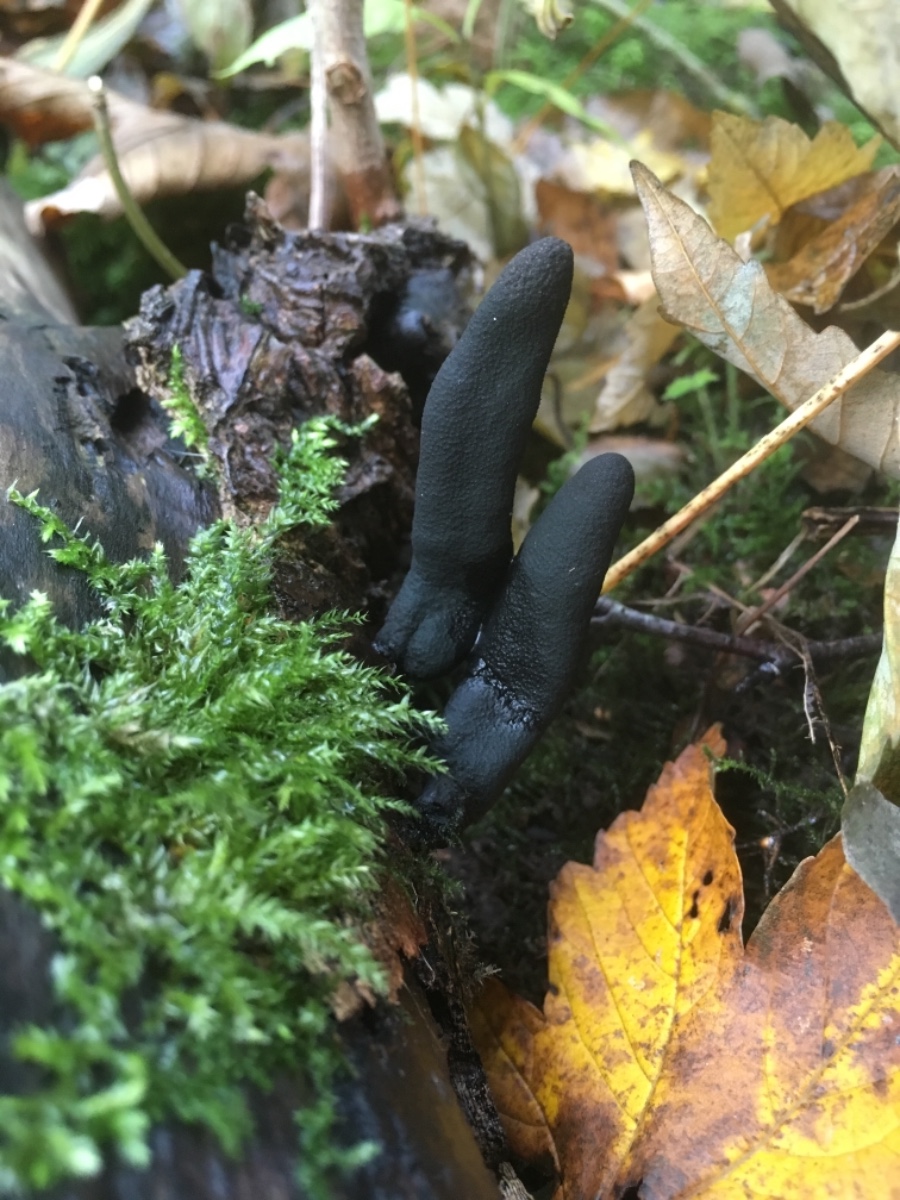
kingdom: Fungi
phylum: Ascomycota
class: Sordariomycetes
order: Xylariales
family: Xylariaceae
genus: Xylaria
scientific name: Xylaria longipes
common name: slank stødsvamp
